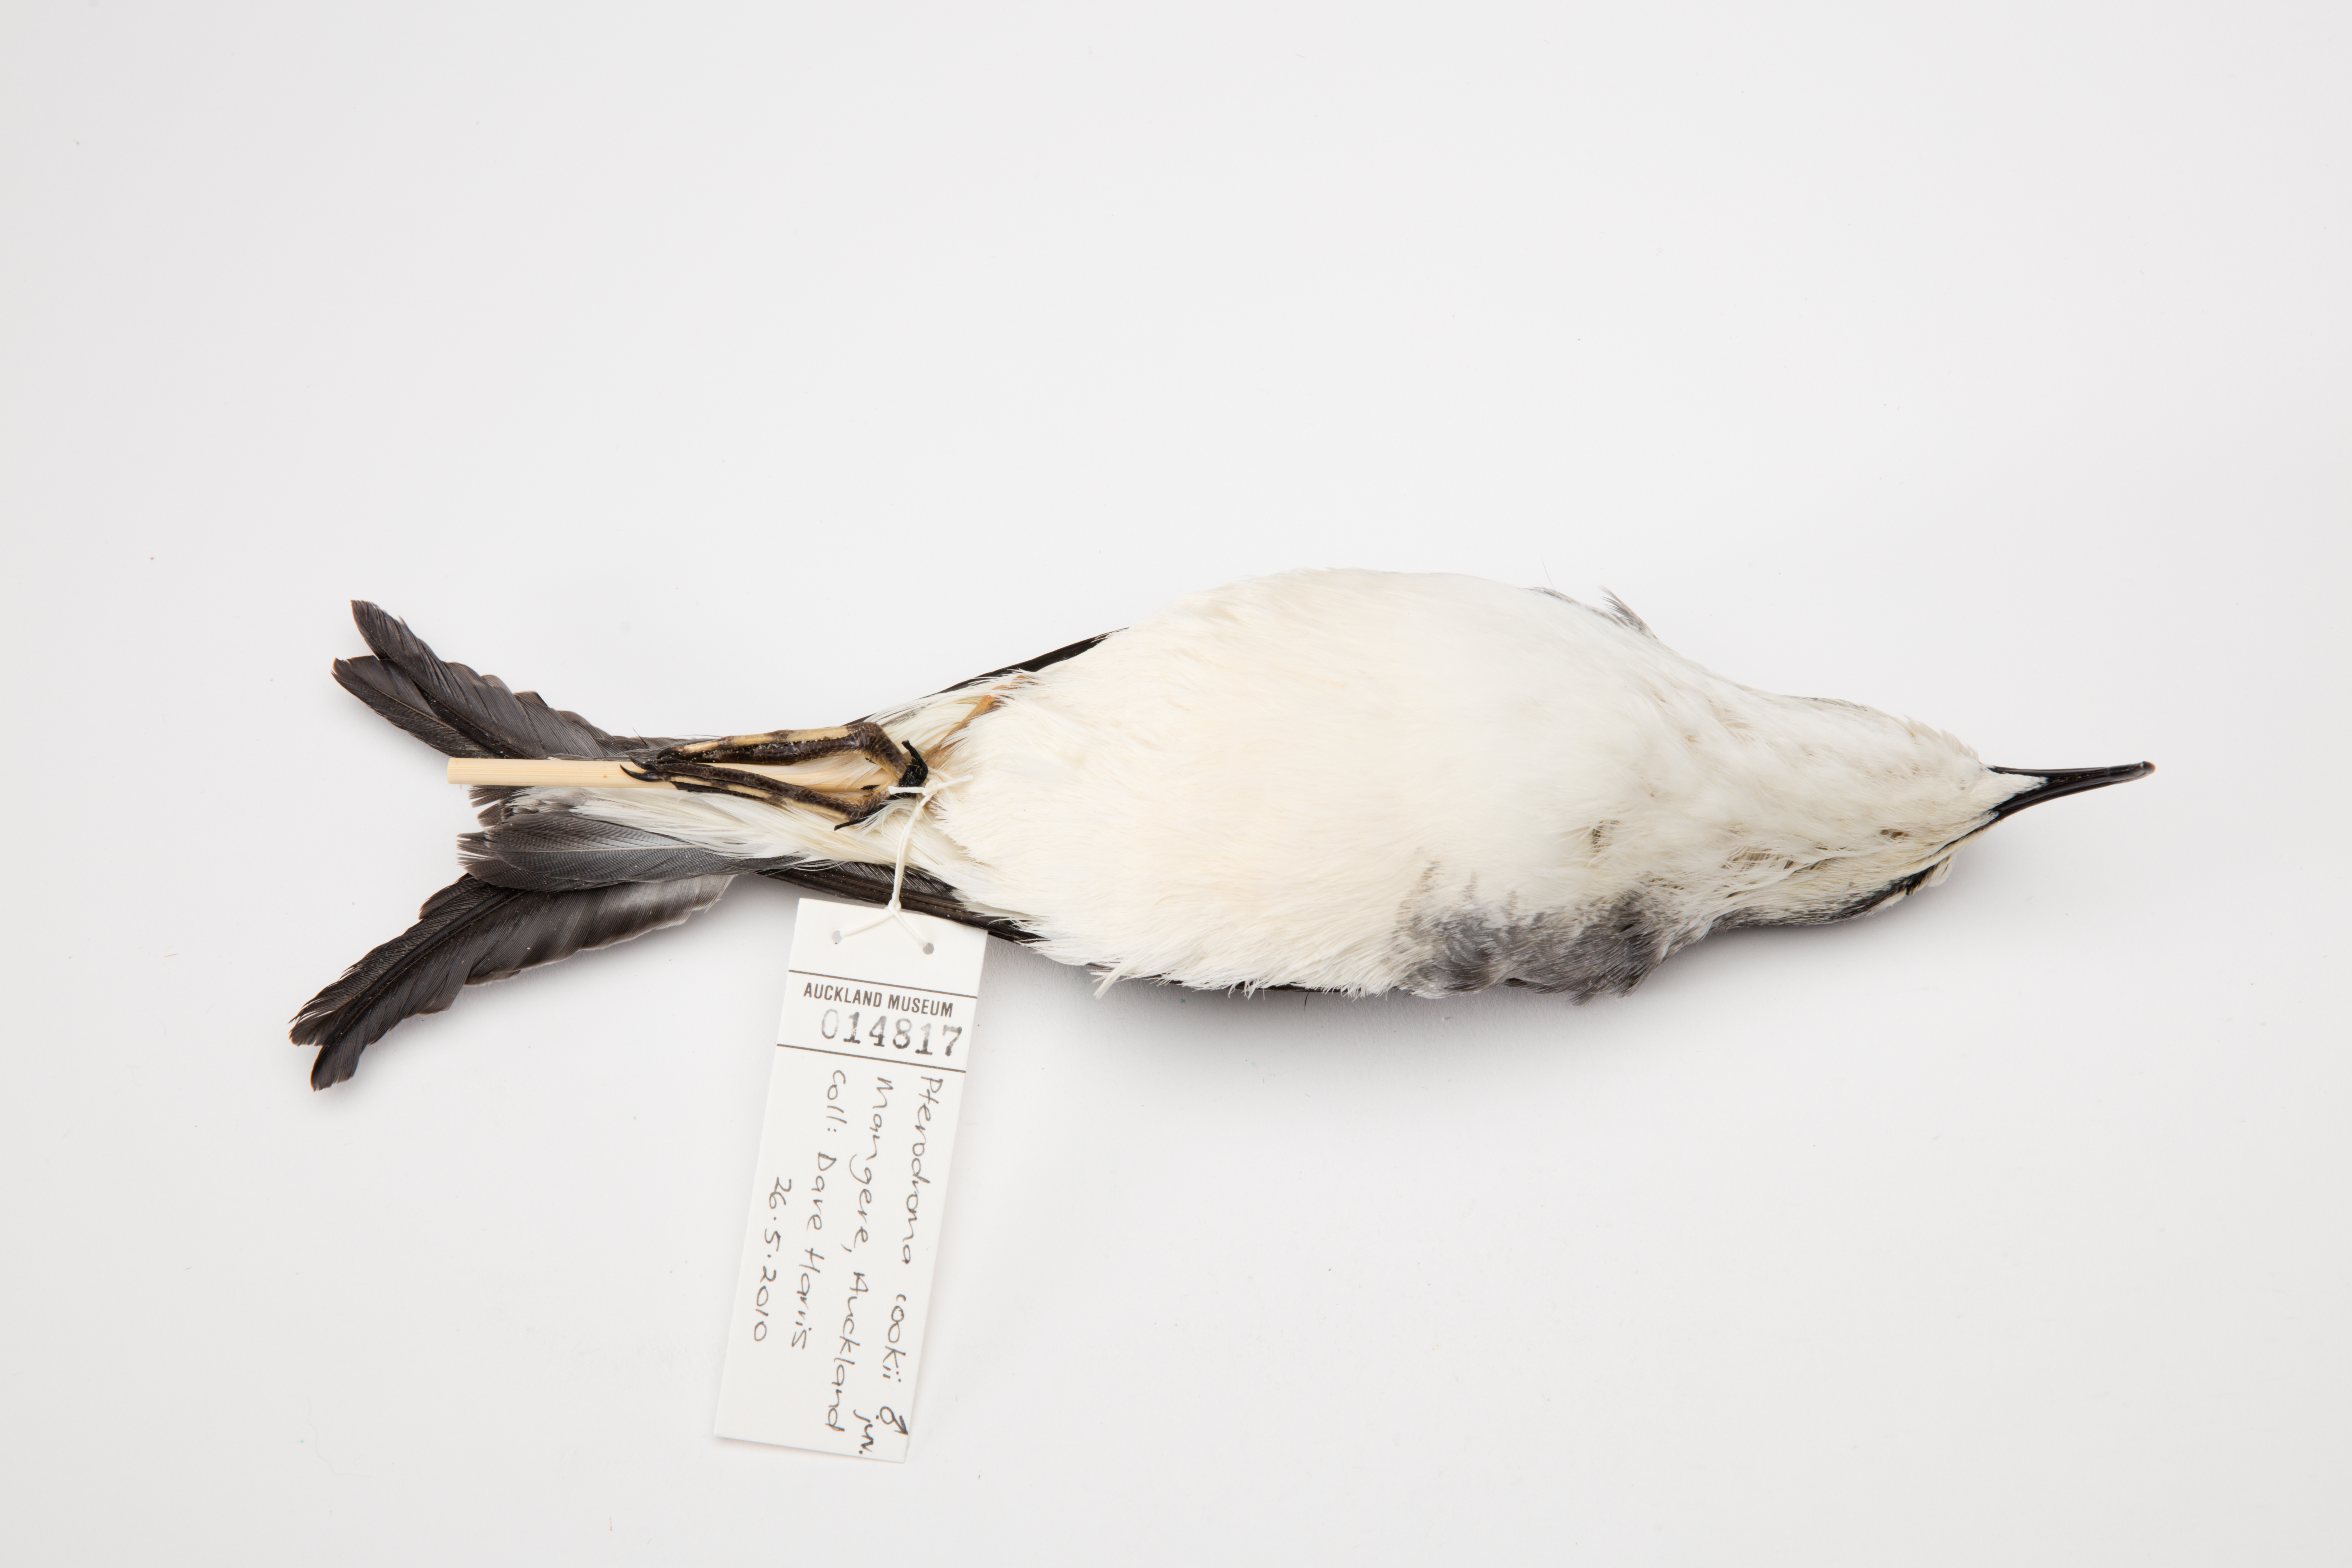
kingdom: Animalia
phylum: Chordata
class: Aves
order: Procellariiformes
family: Procellariidae
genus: Pterodroma
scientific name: Pterodroma cookii
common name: Cook's petrel
